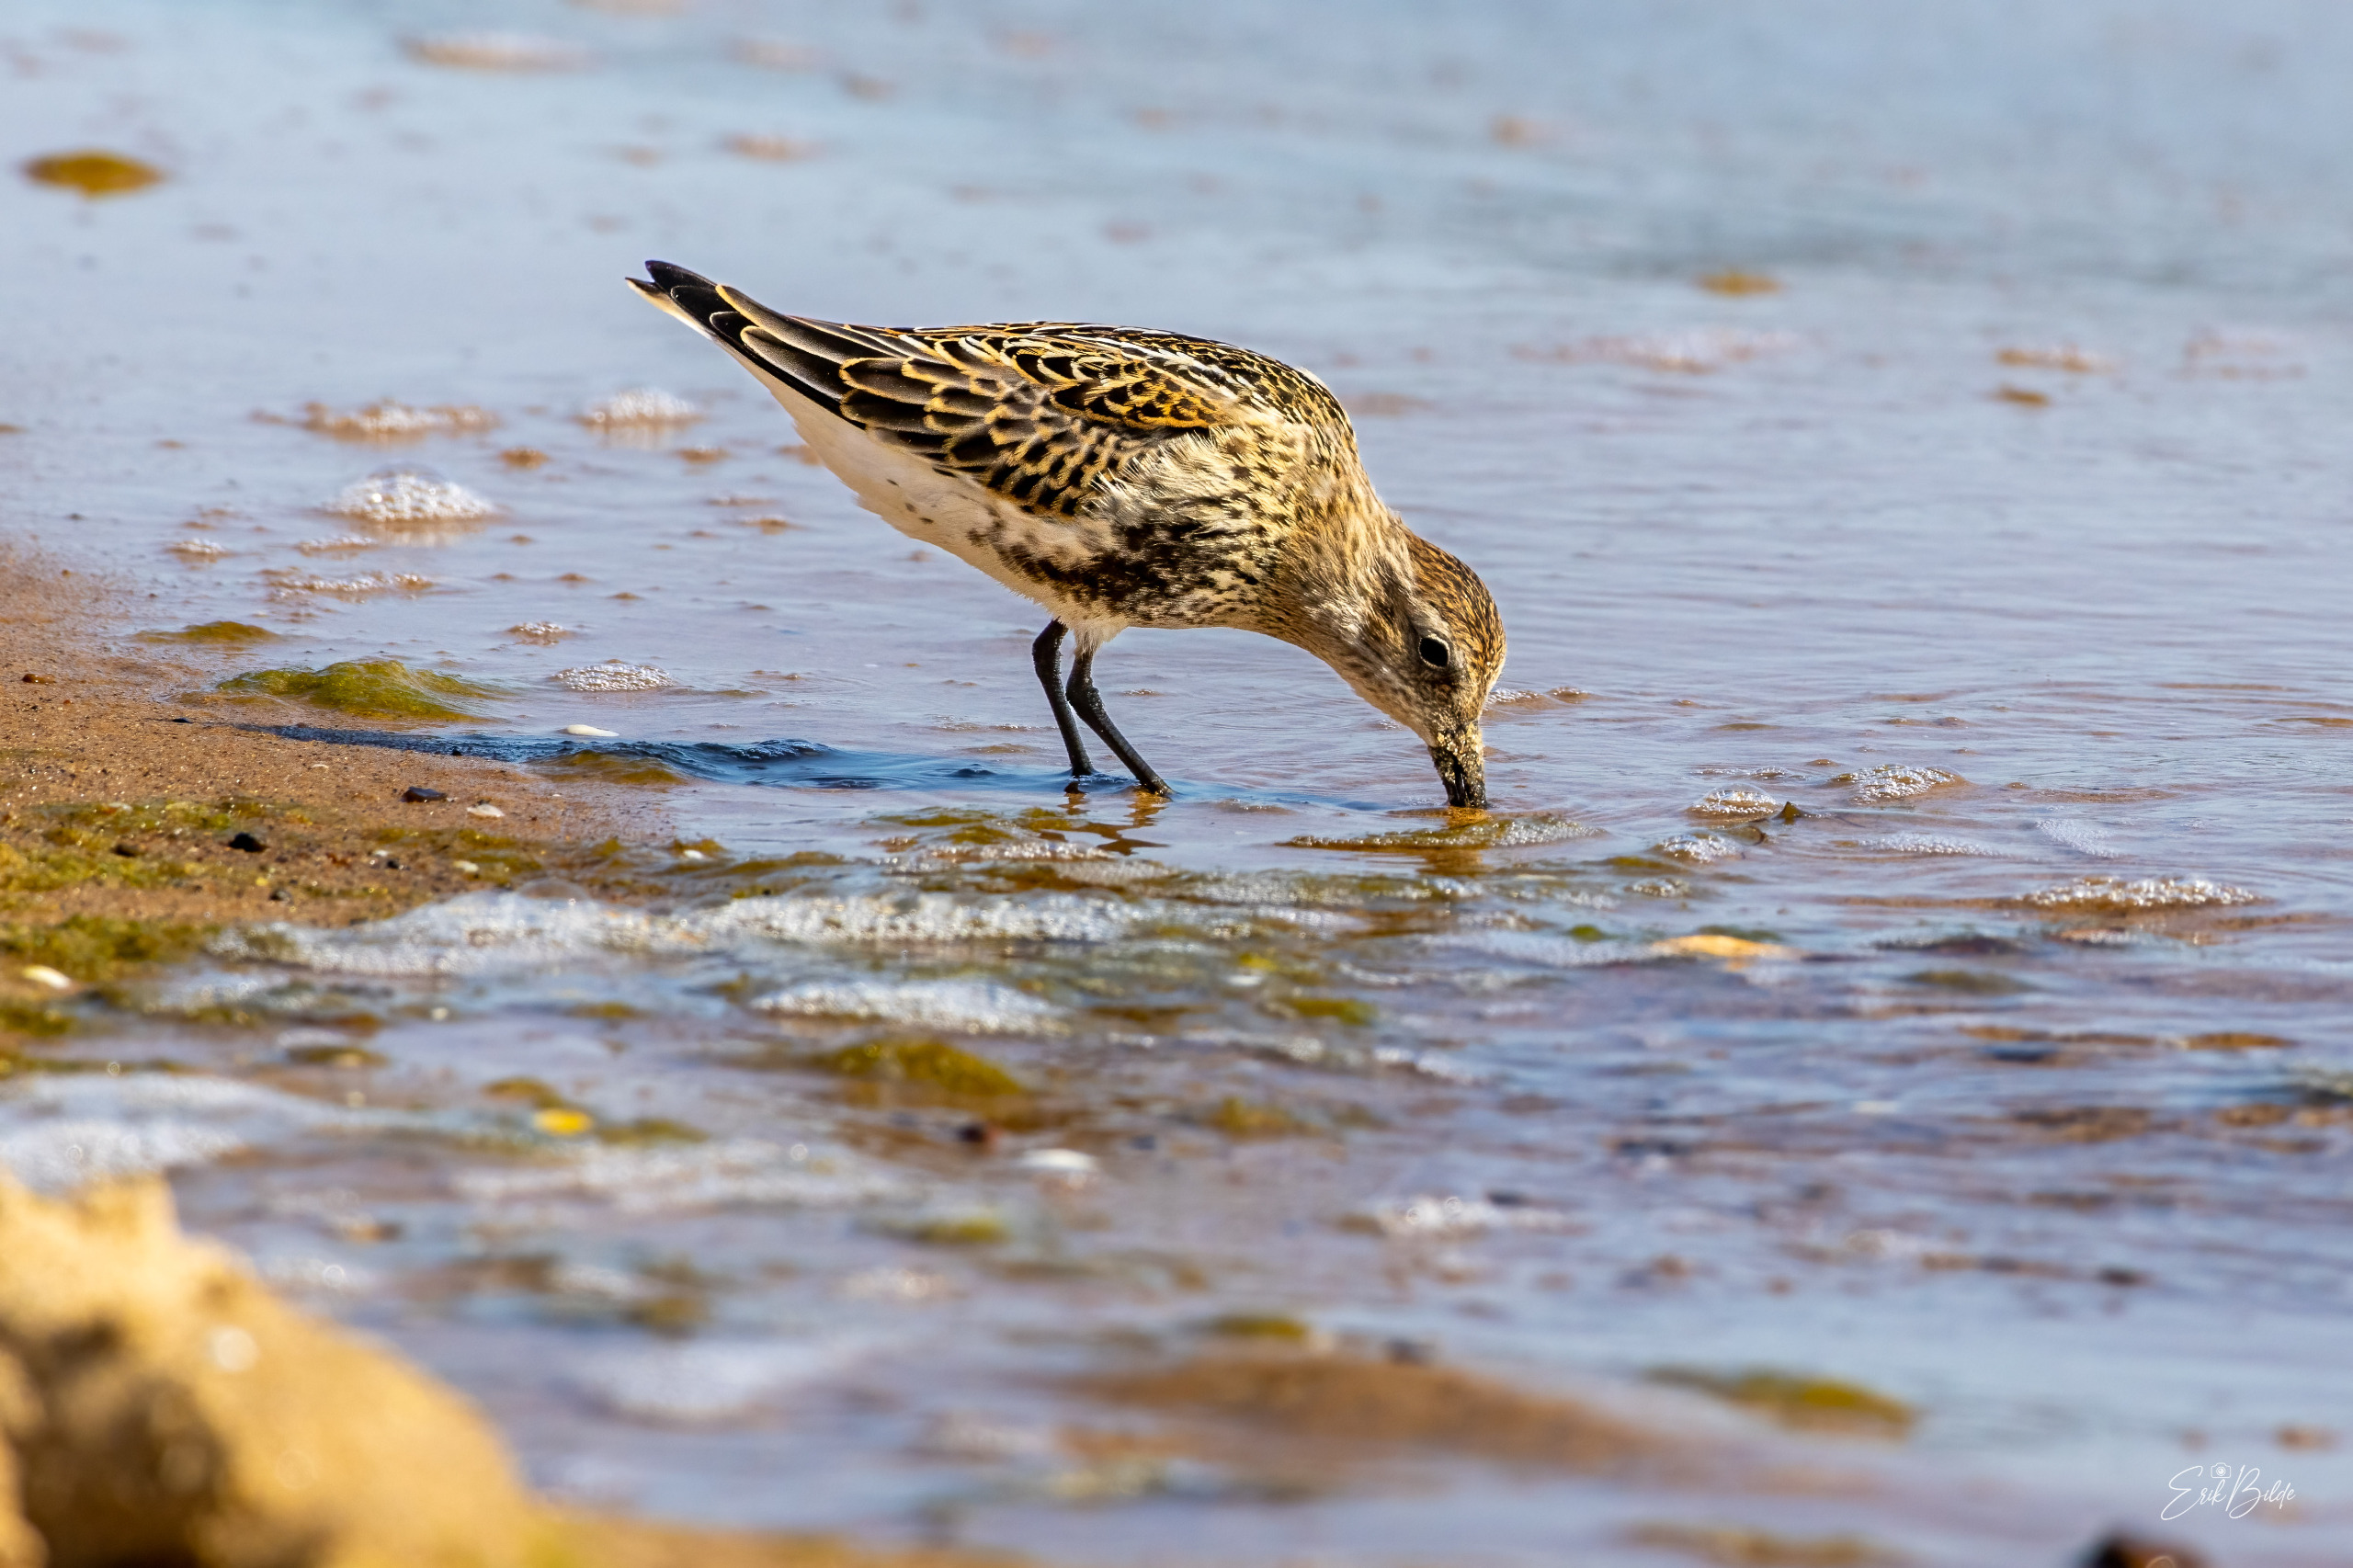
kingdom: Animalia
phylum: Chordata
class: Aves
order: Charadriiformes
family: Scolopacidae
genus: Calidris
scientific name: Calidris alpina
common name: Almindelig ryle
